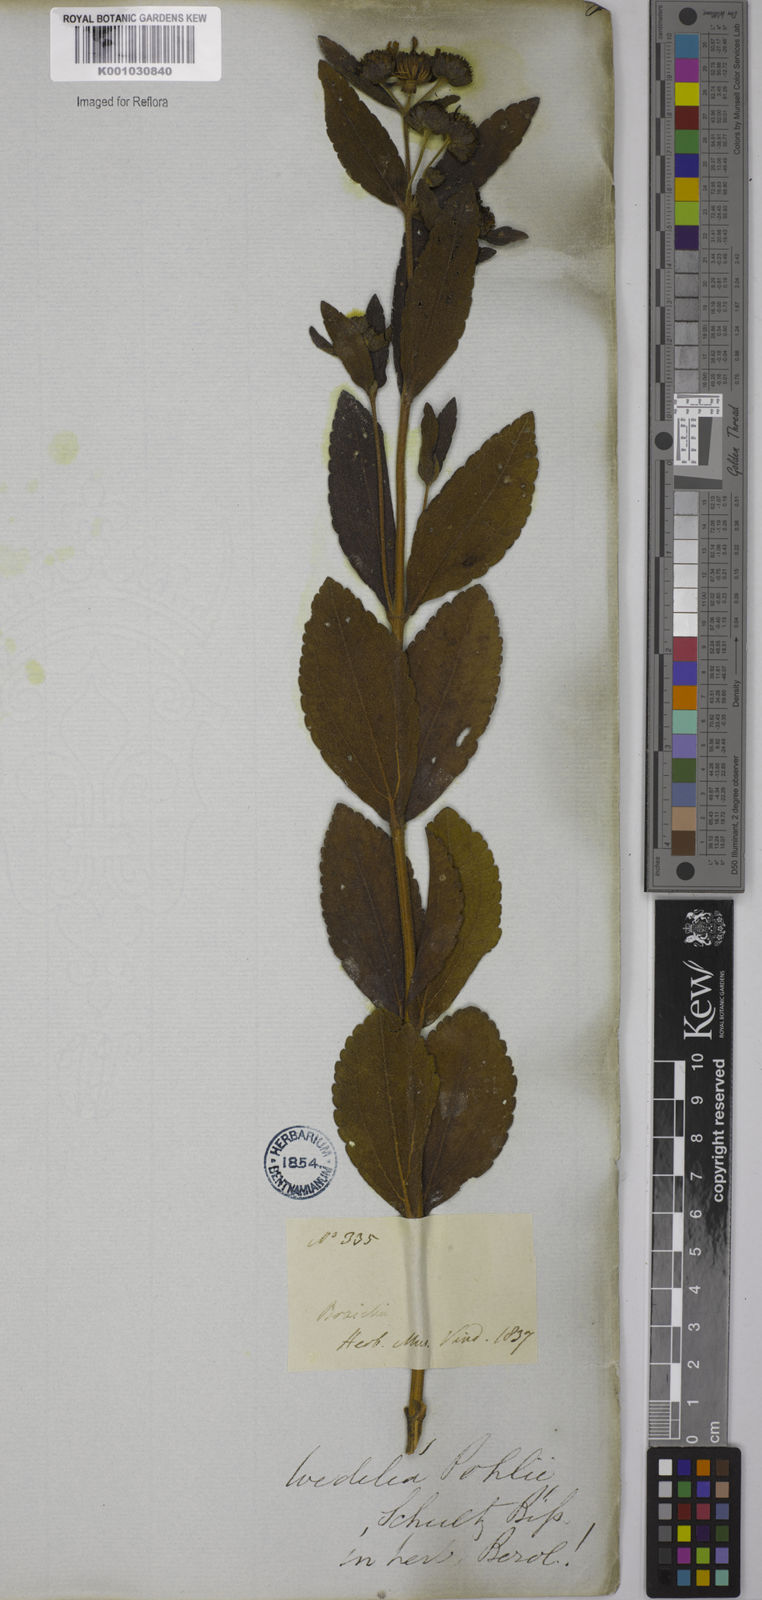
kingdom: Plantae
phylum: Tracheophyta
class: Magnoliopsida
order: Asterales
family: Asteraceae
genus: Wedelia
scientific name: Wedelia vauthieri
